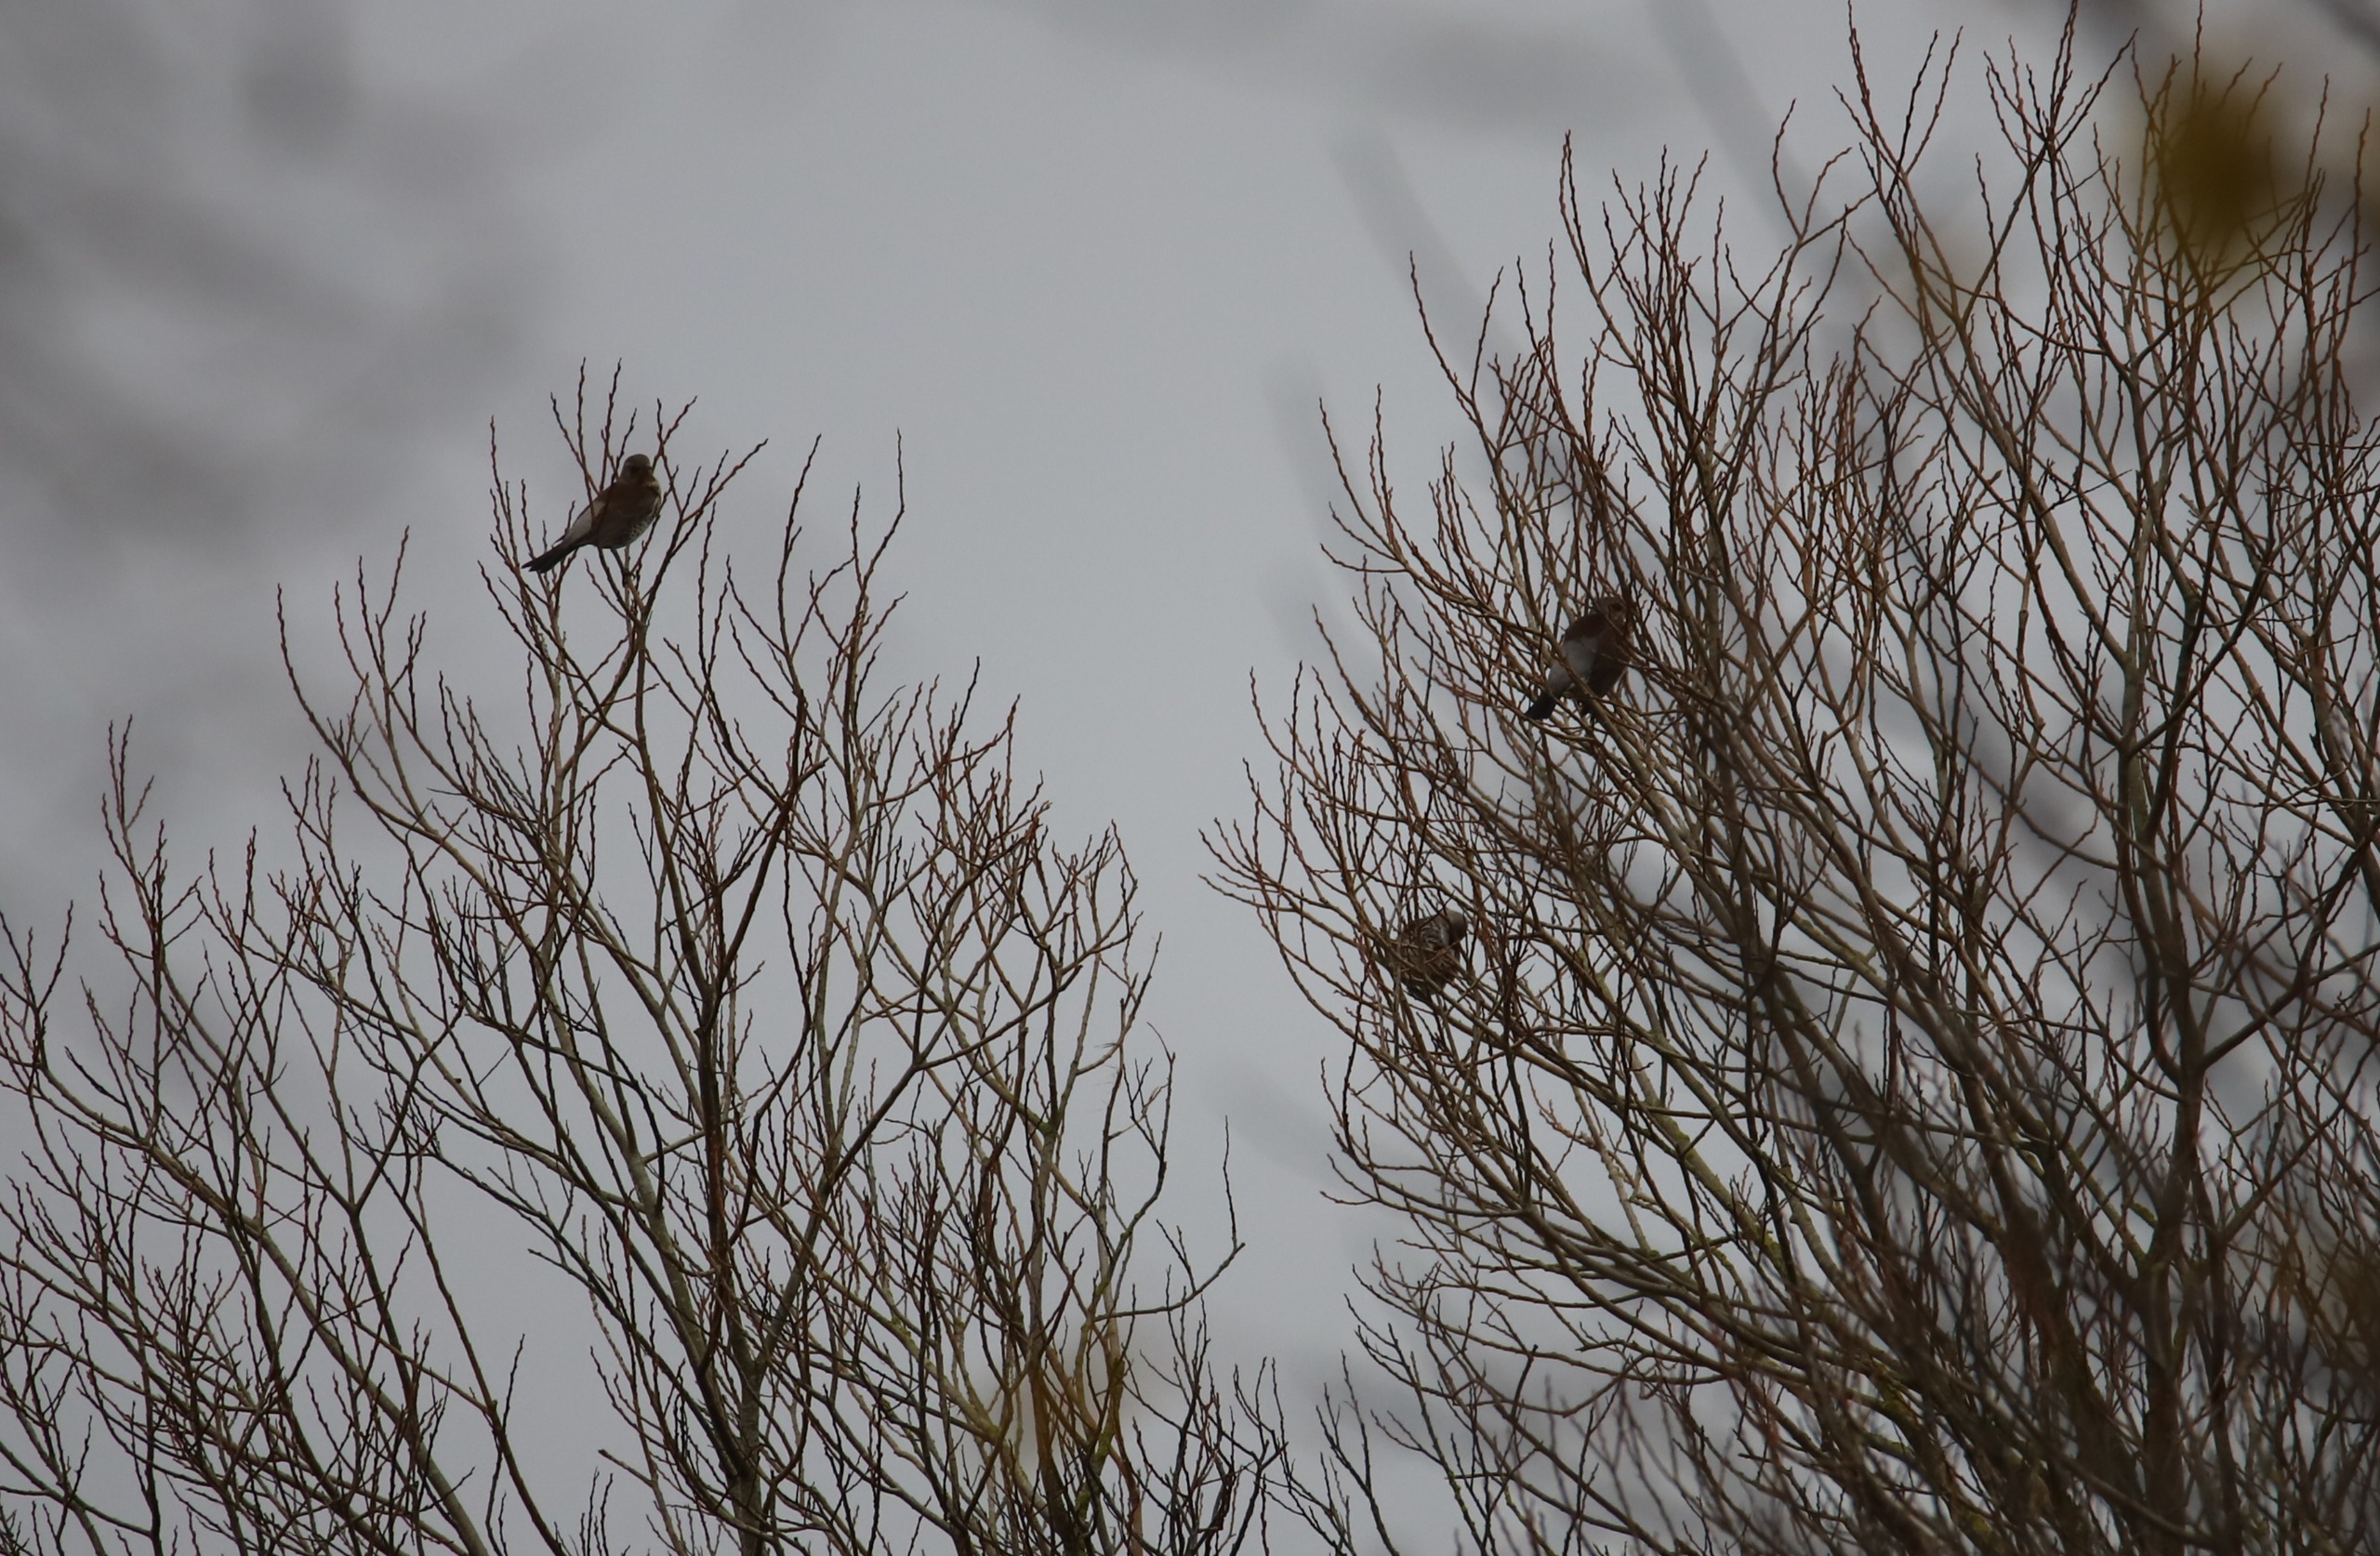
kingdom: Animalia
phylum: Chordata
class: Aves
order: Passeriformes
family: Turdidae
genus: Turdus
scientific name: Turdus pilaris
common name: Sjagger
